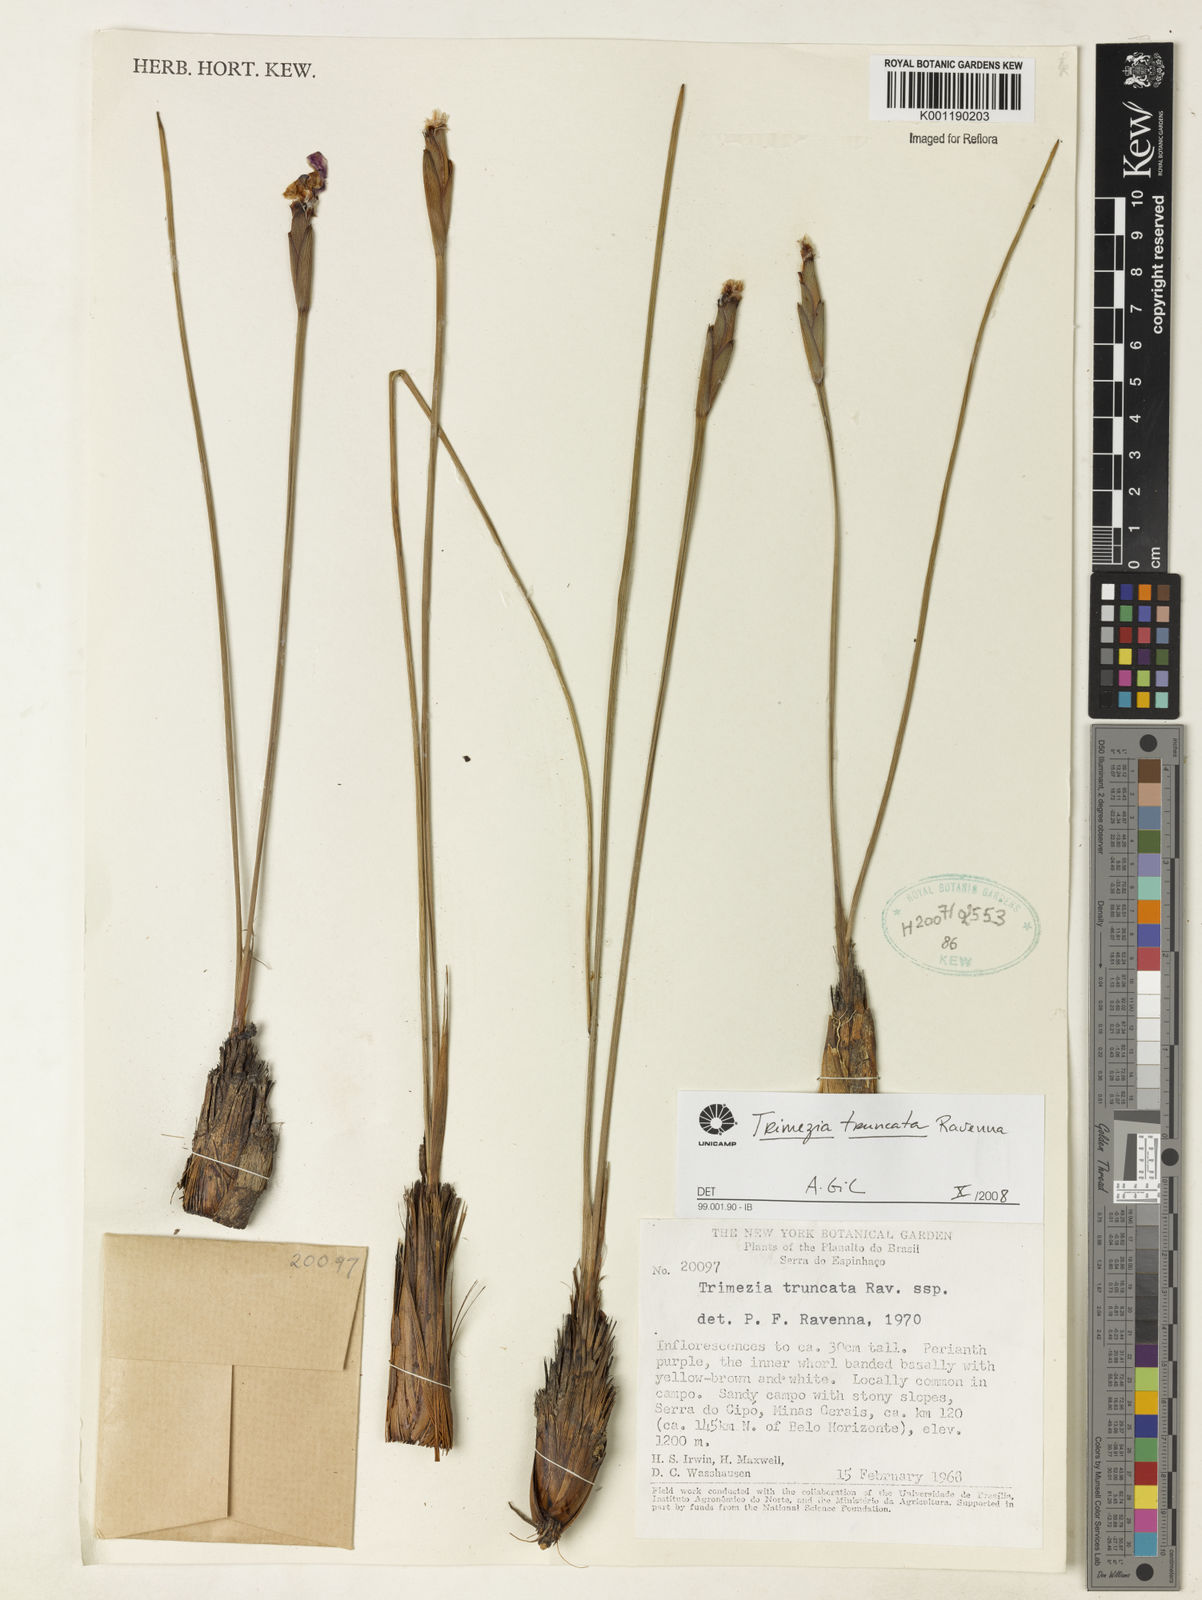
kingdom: Plantae
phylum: Tracheophyta
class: Liliopsida
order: Asparagales
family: Iridaceae
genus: Trimezia
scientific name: Trimezia truncata
